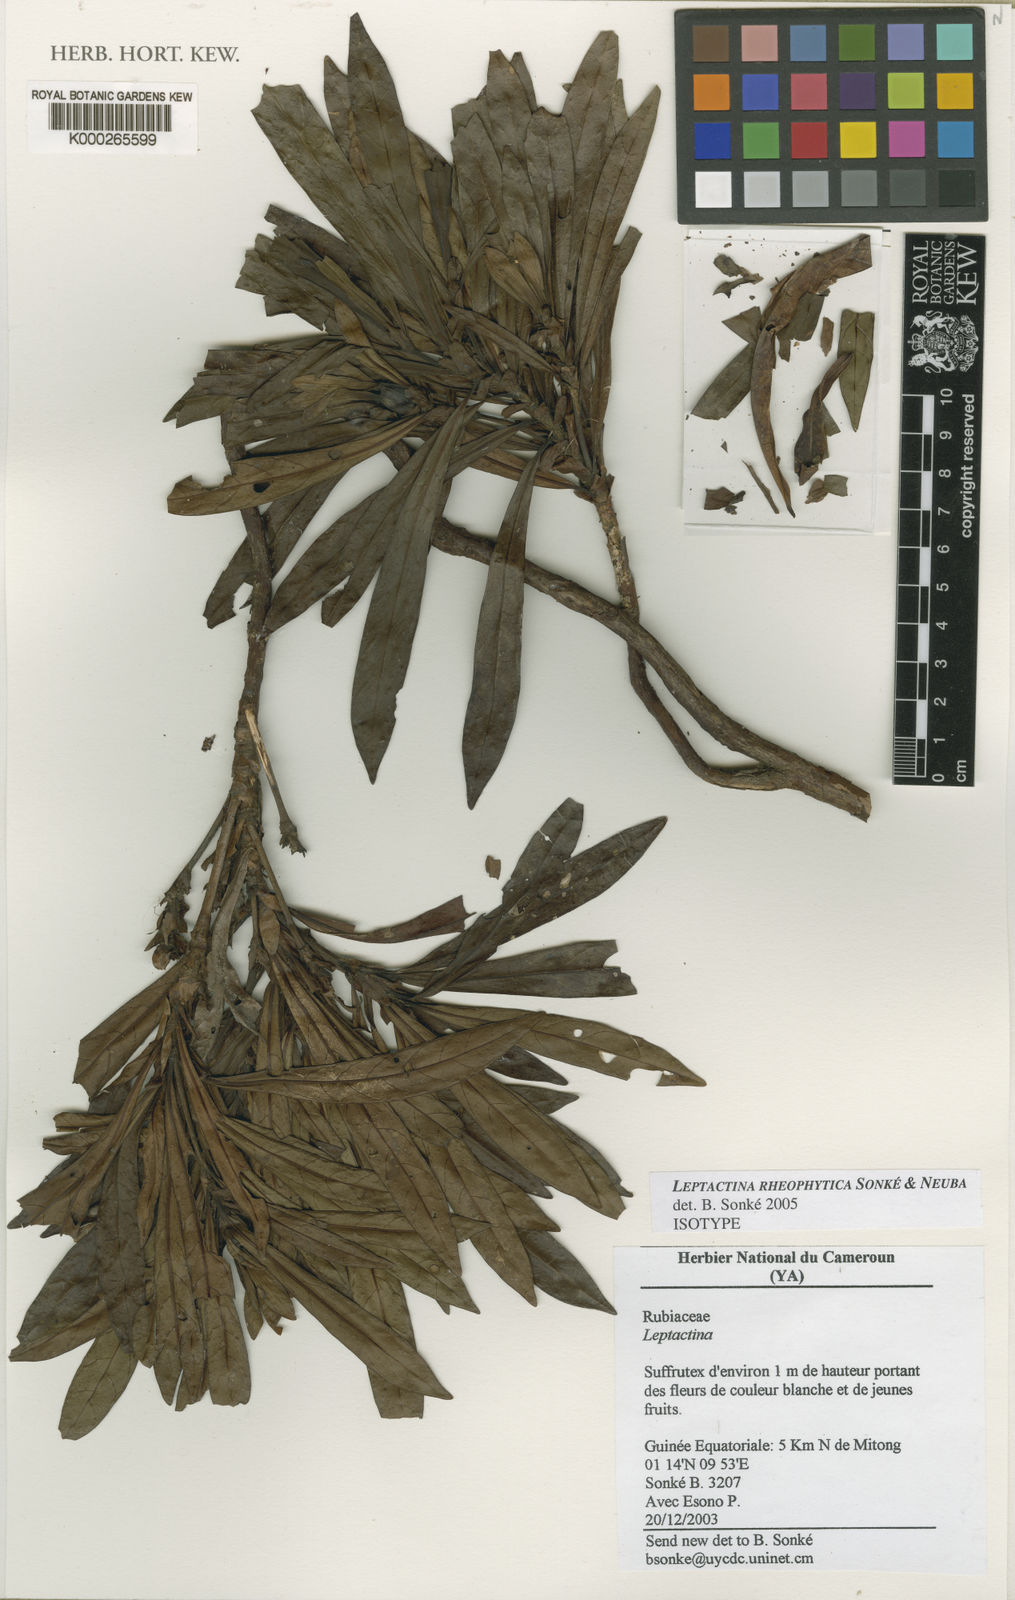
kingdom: Plantae
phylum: Tracheophyta
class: Magnoliopsida
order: Gentianales
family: Rubiaceae
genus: Leptactina
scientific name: Leptactina
